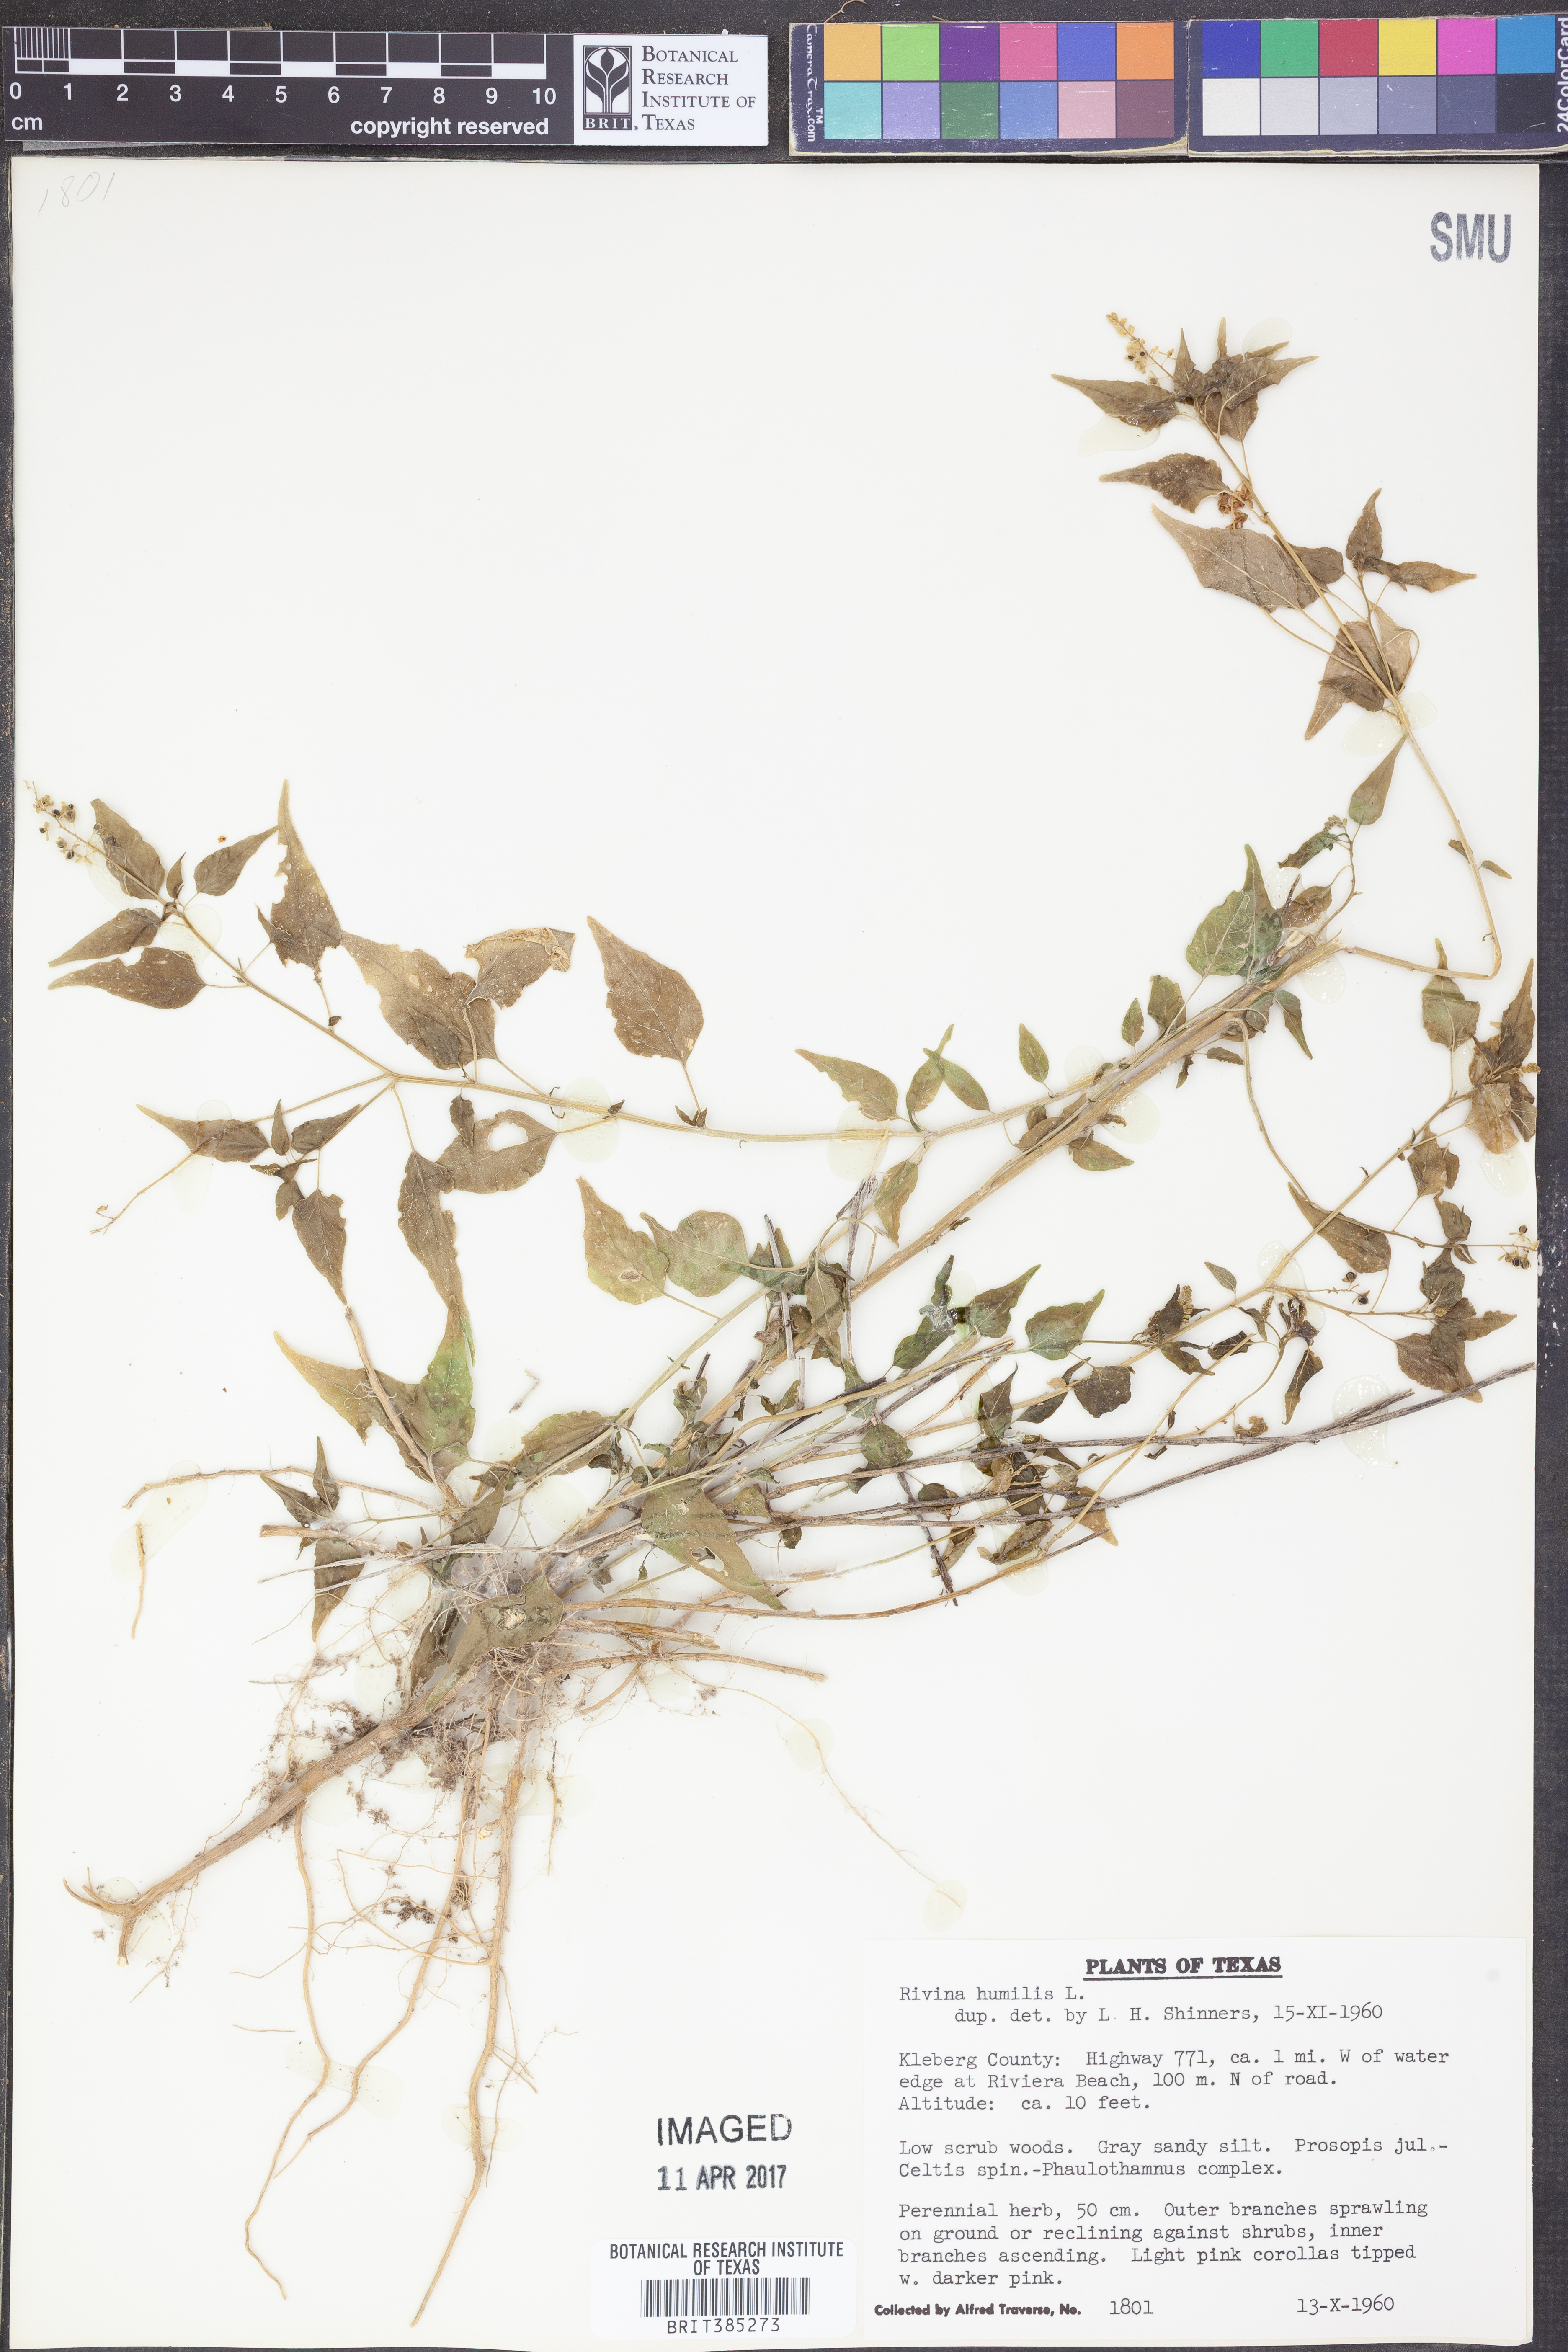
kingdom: Plantae
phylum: Tracheophyta
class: Magnoliopsida
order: Caryophyllales
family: Phytolaccaceae
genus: Rivina
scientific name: Rivina humilis
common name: Rougeplant
